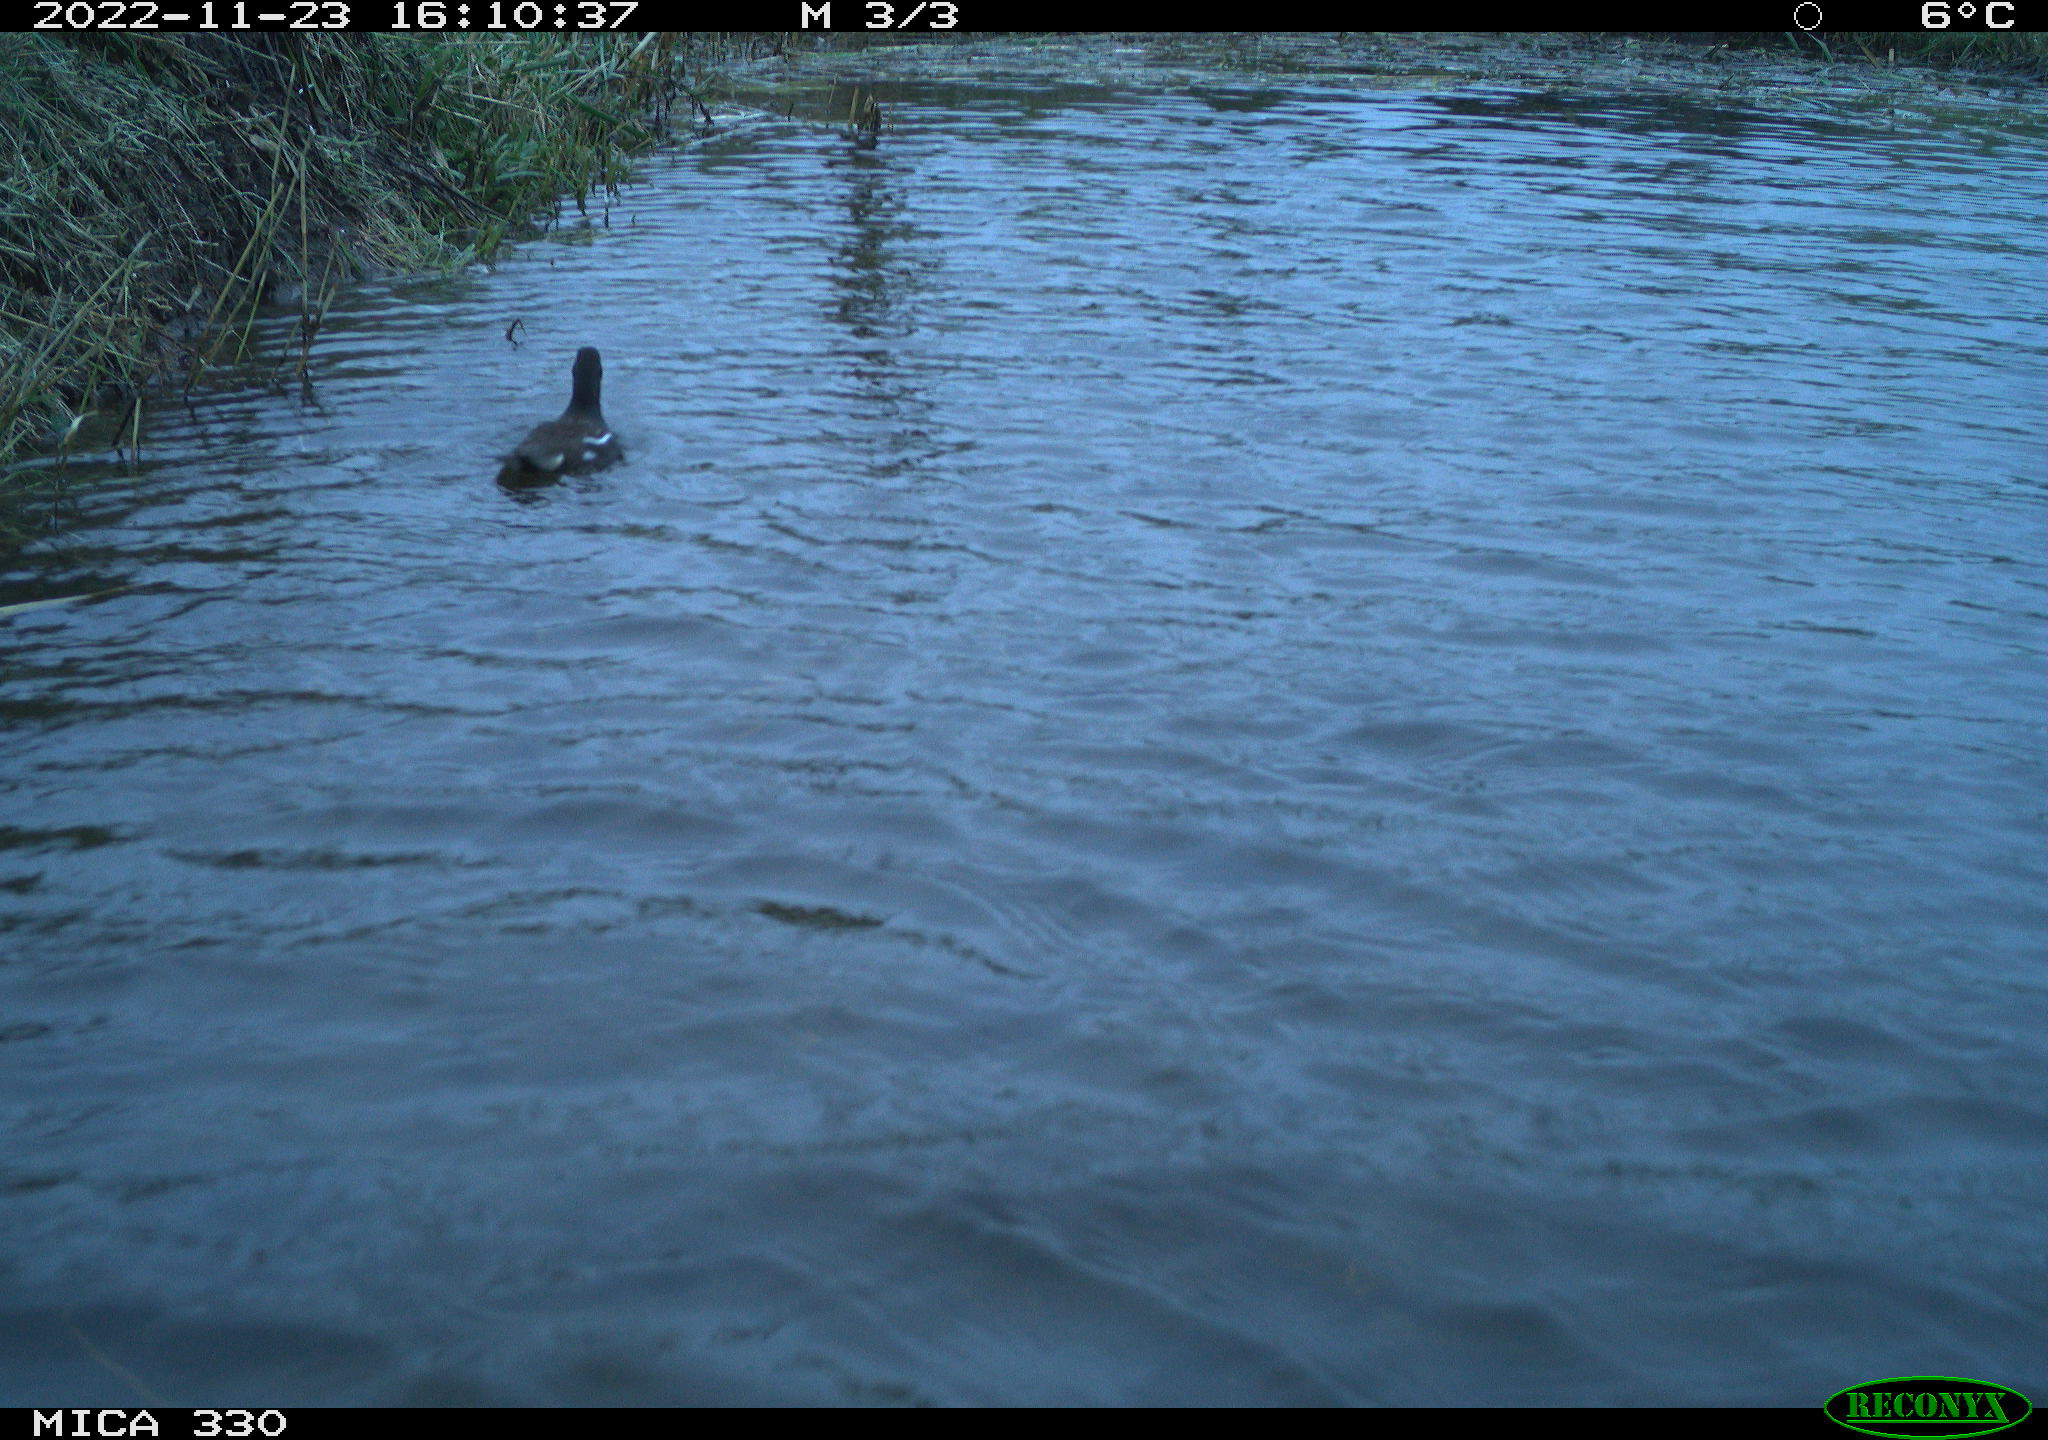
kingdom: Animalia
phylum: Chordata
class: Aves
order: Gruiformes
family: Rallidae
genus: Gallinula
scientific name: Gallinula chloropus
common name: Common moorhen
